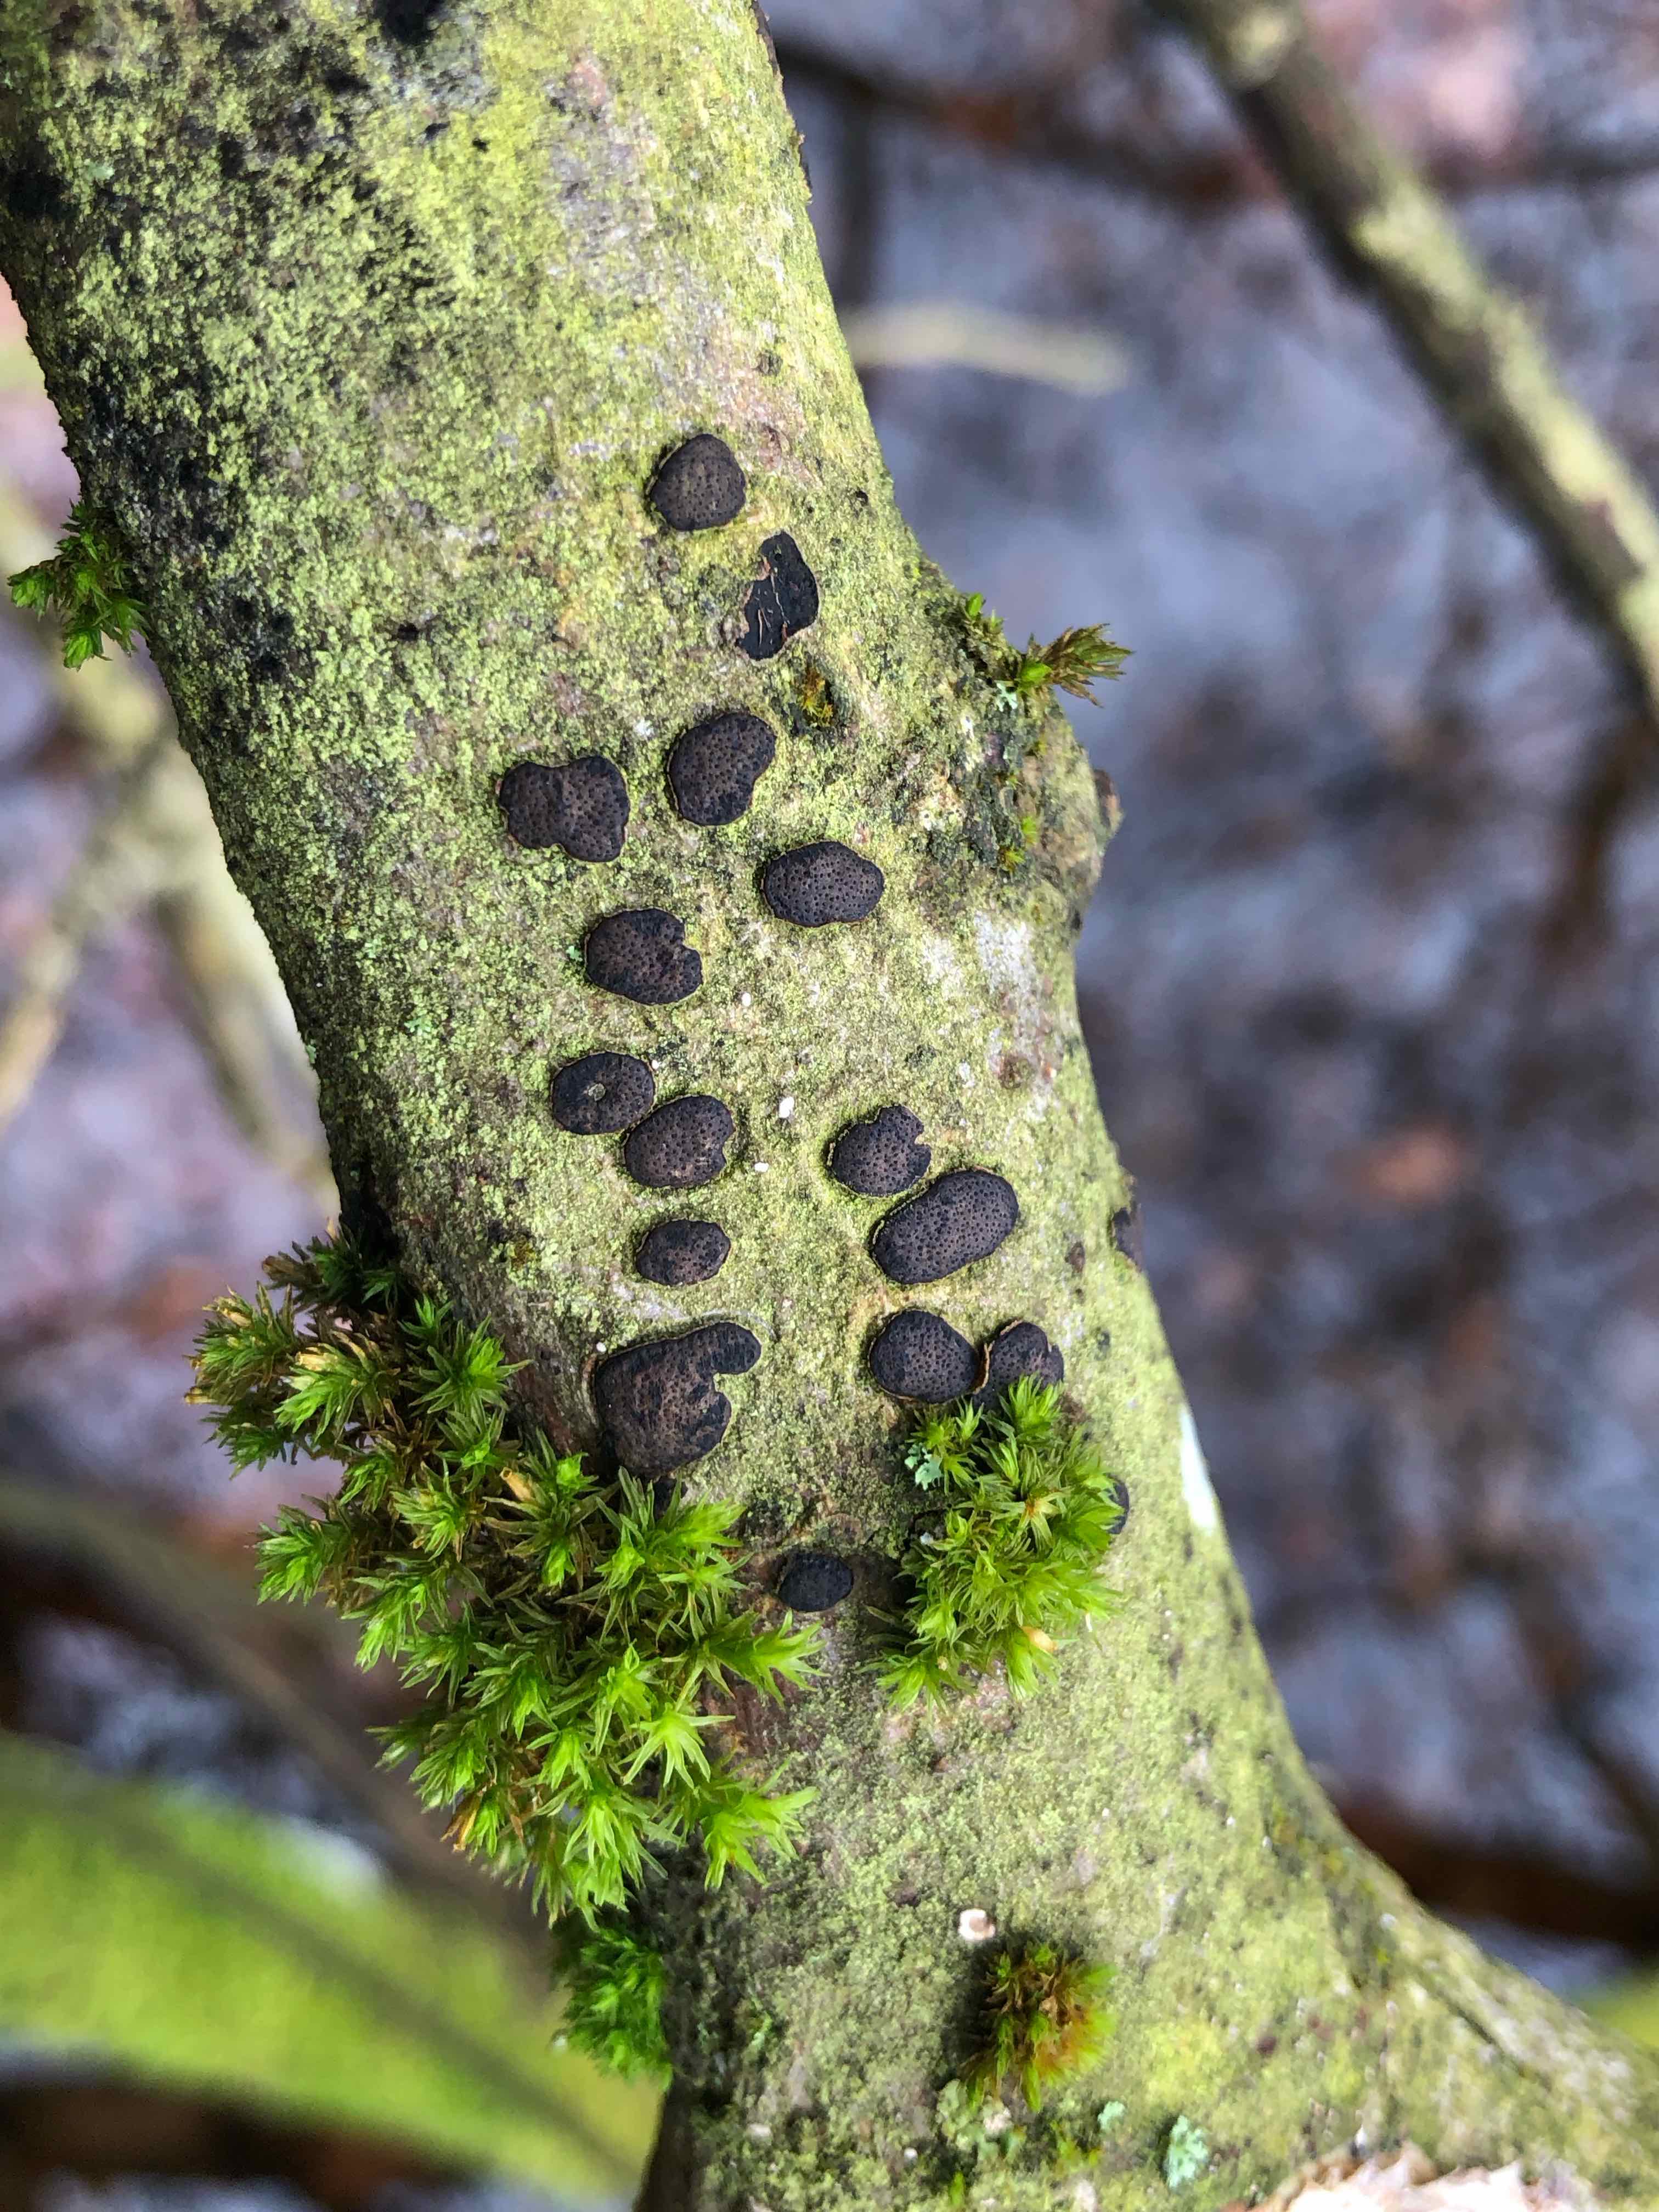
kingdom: Fungi
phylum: Ascomycota
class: Sordariomycetes
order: Xylariales
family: Diatrypaceae
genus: Diatrype
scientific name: Diatrype bullata
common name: pile-kulskorpe
